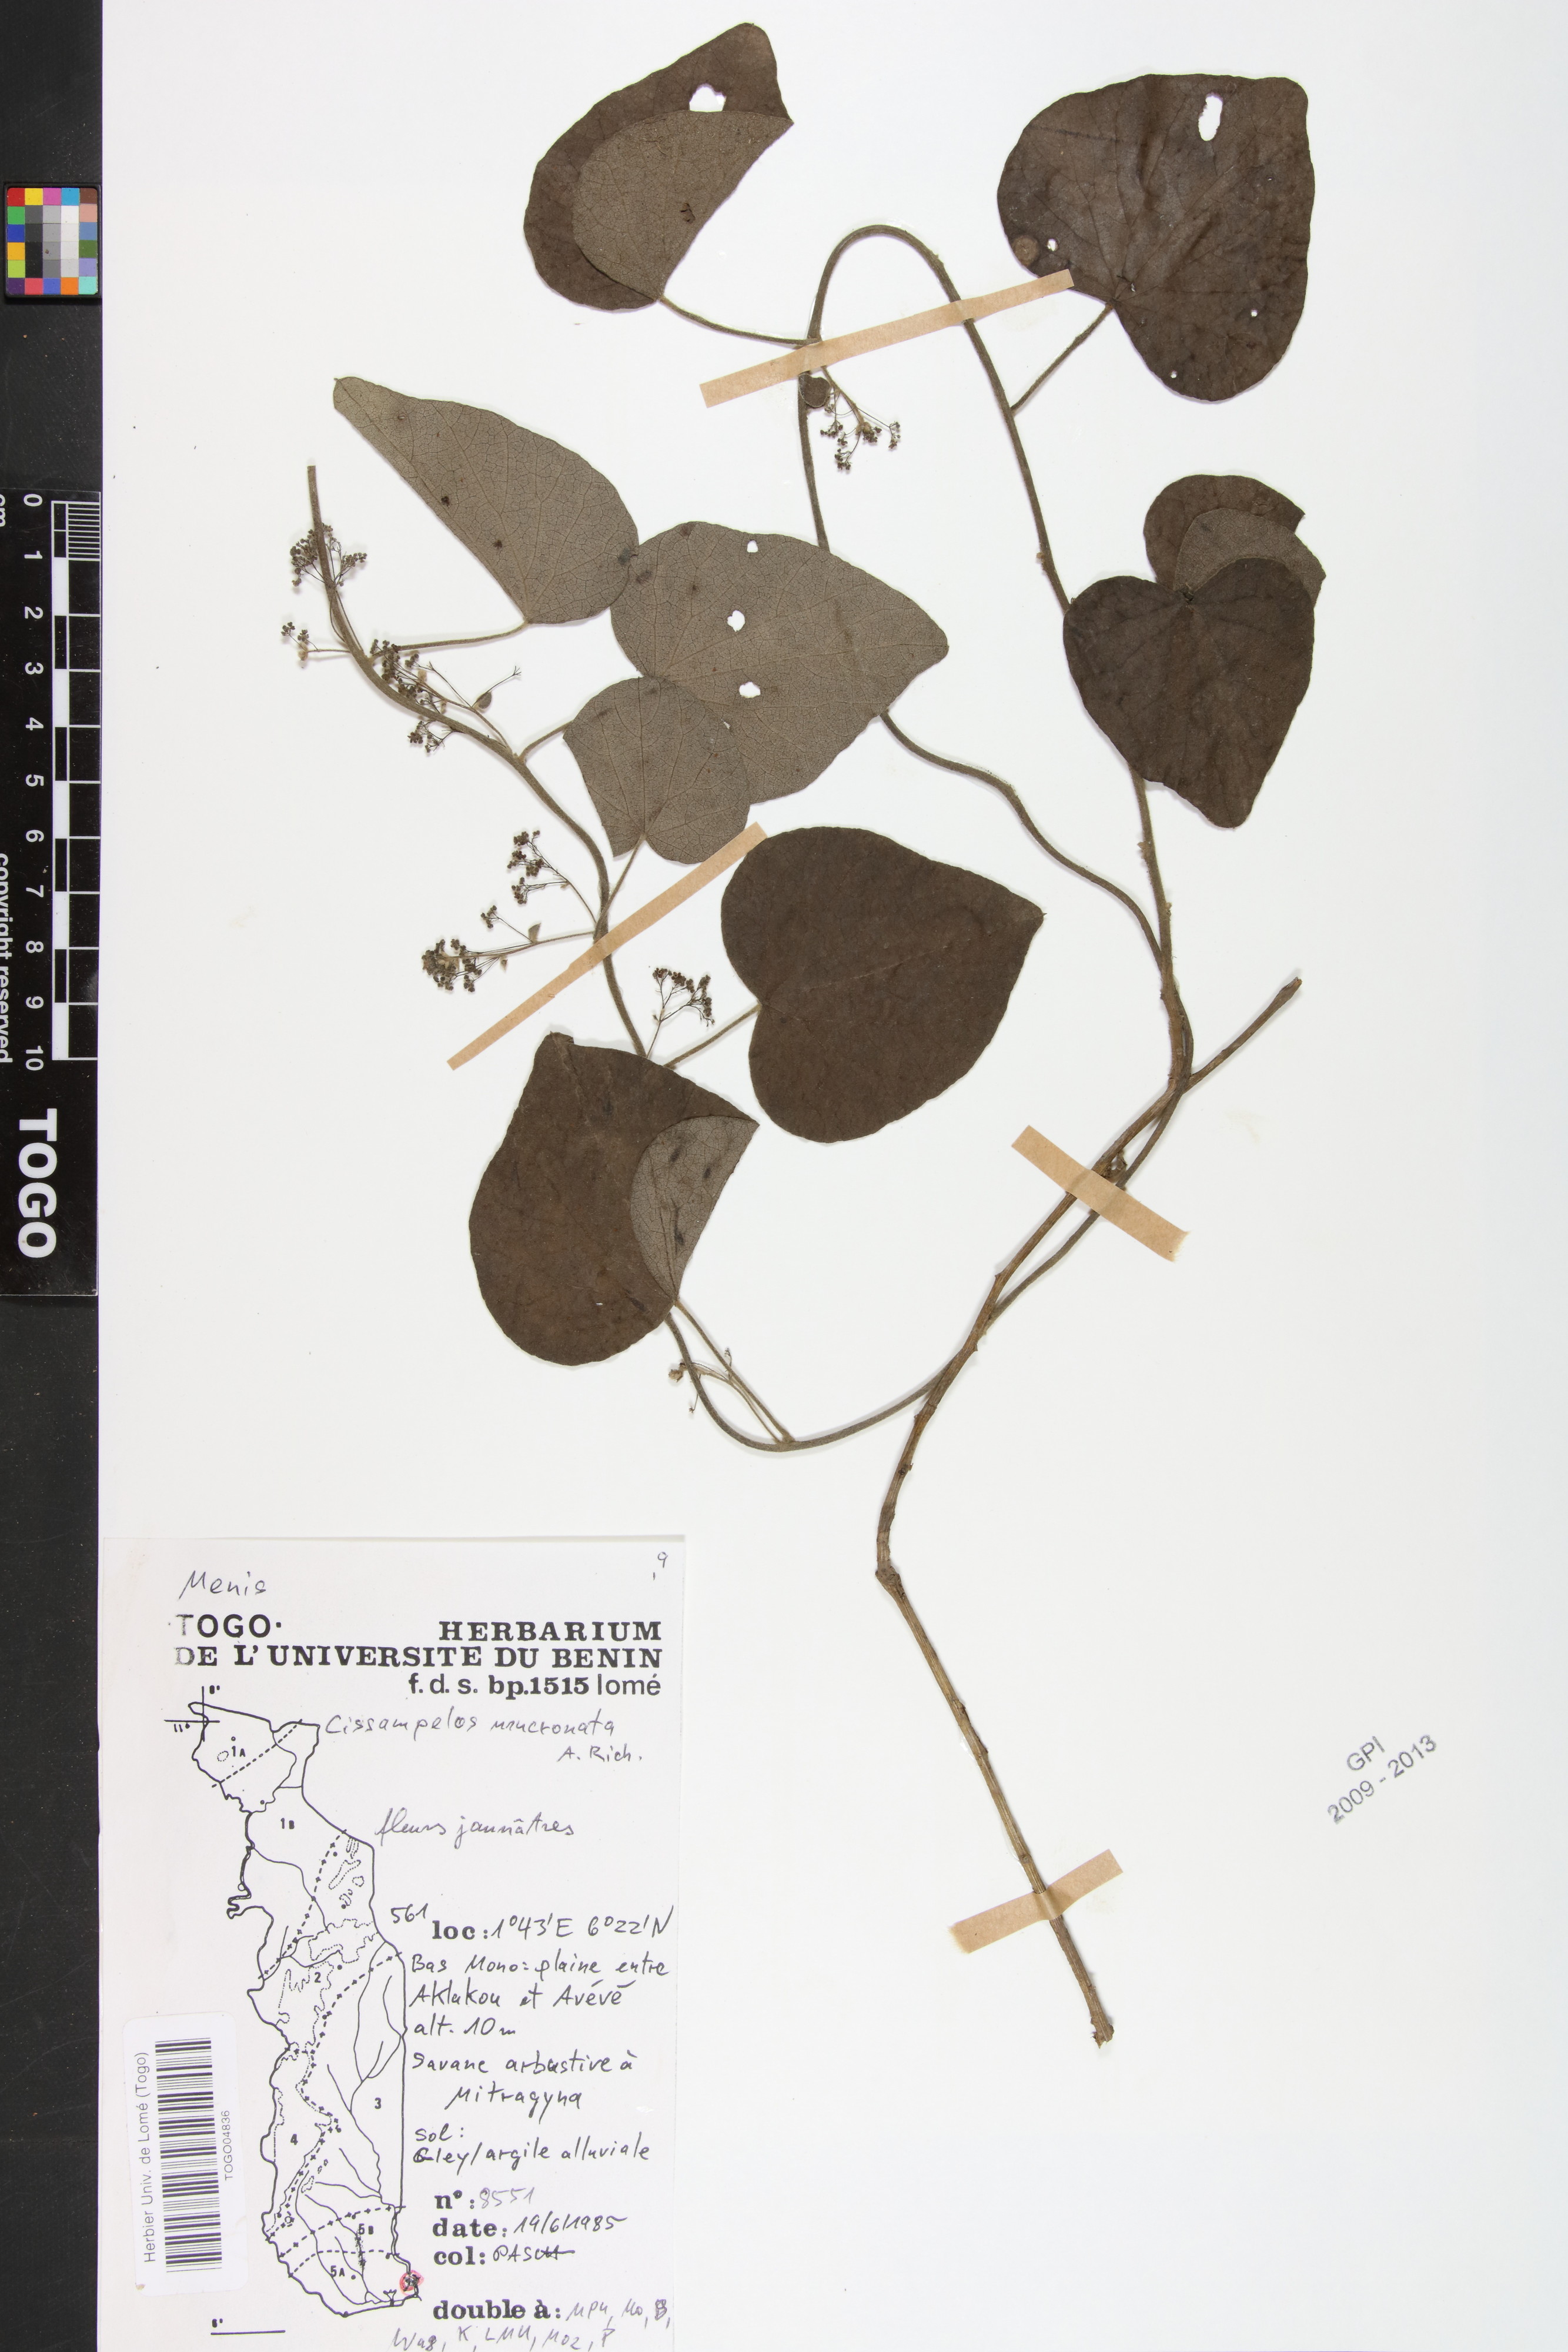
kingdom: Plantae
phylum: Tracheophyta
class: Magnoliopsida
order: Ranunculales
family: Menispermaceae
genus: Cissampelos
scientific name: Cissampelos mucronata
